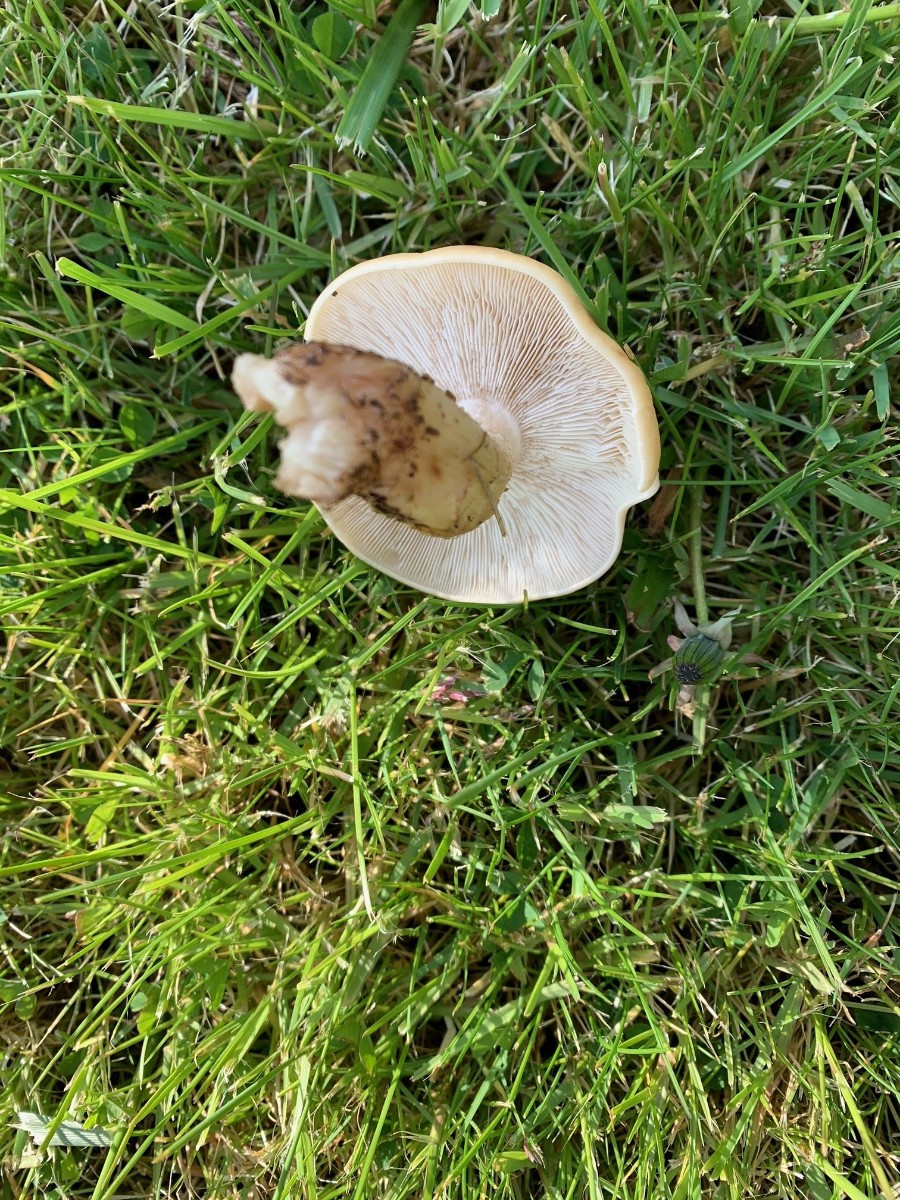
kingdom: Fungi
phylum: Basidiomycota
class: Agaricomycetes
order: Agaricales
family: Lyophyllaceae
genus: Calocybe
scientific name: Calocybe gambosa
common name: vårmusseron
